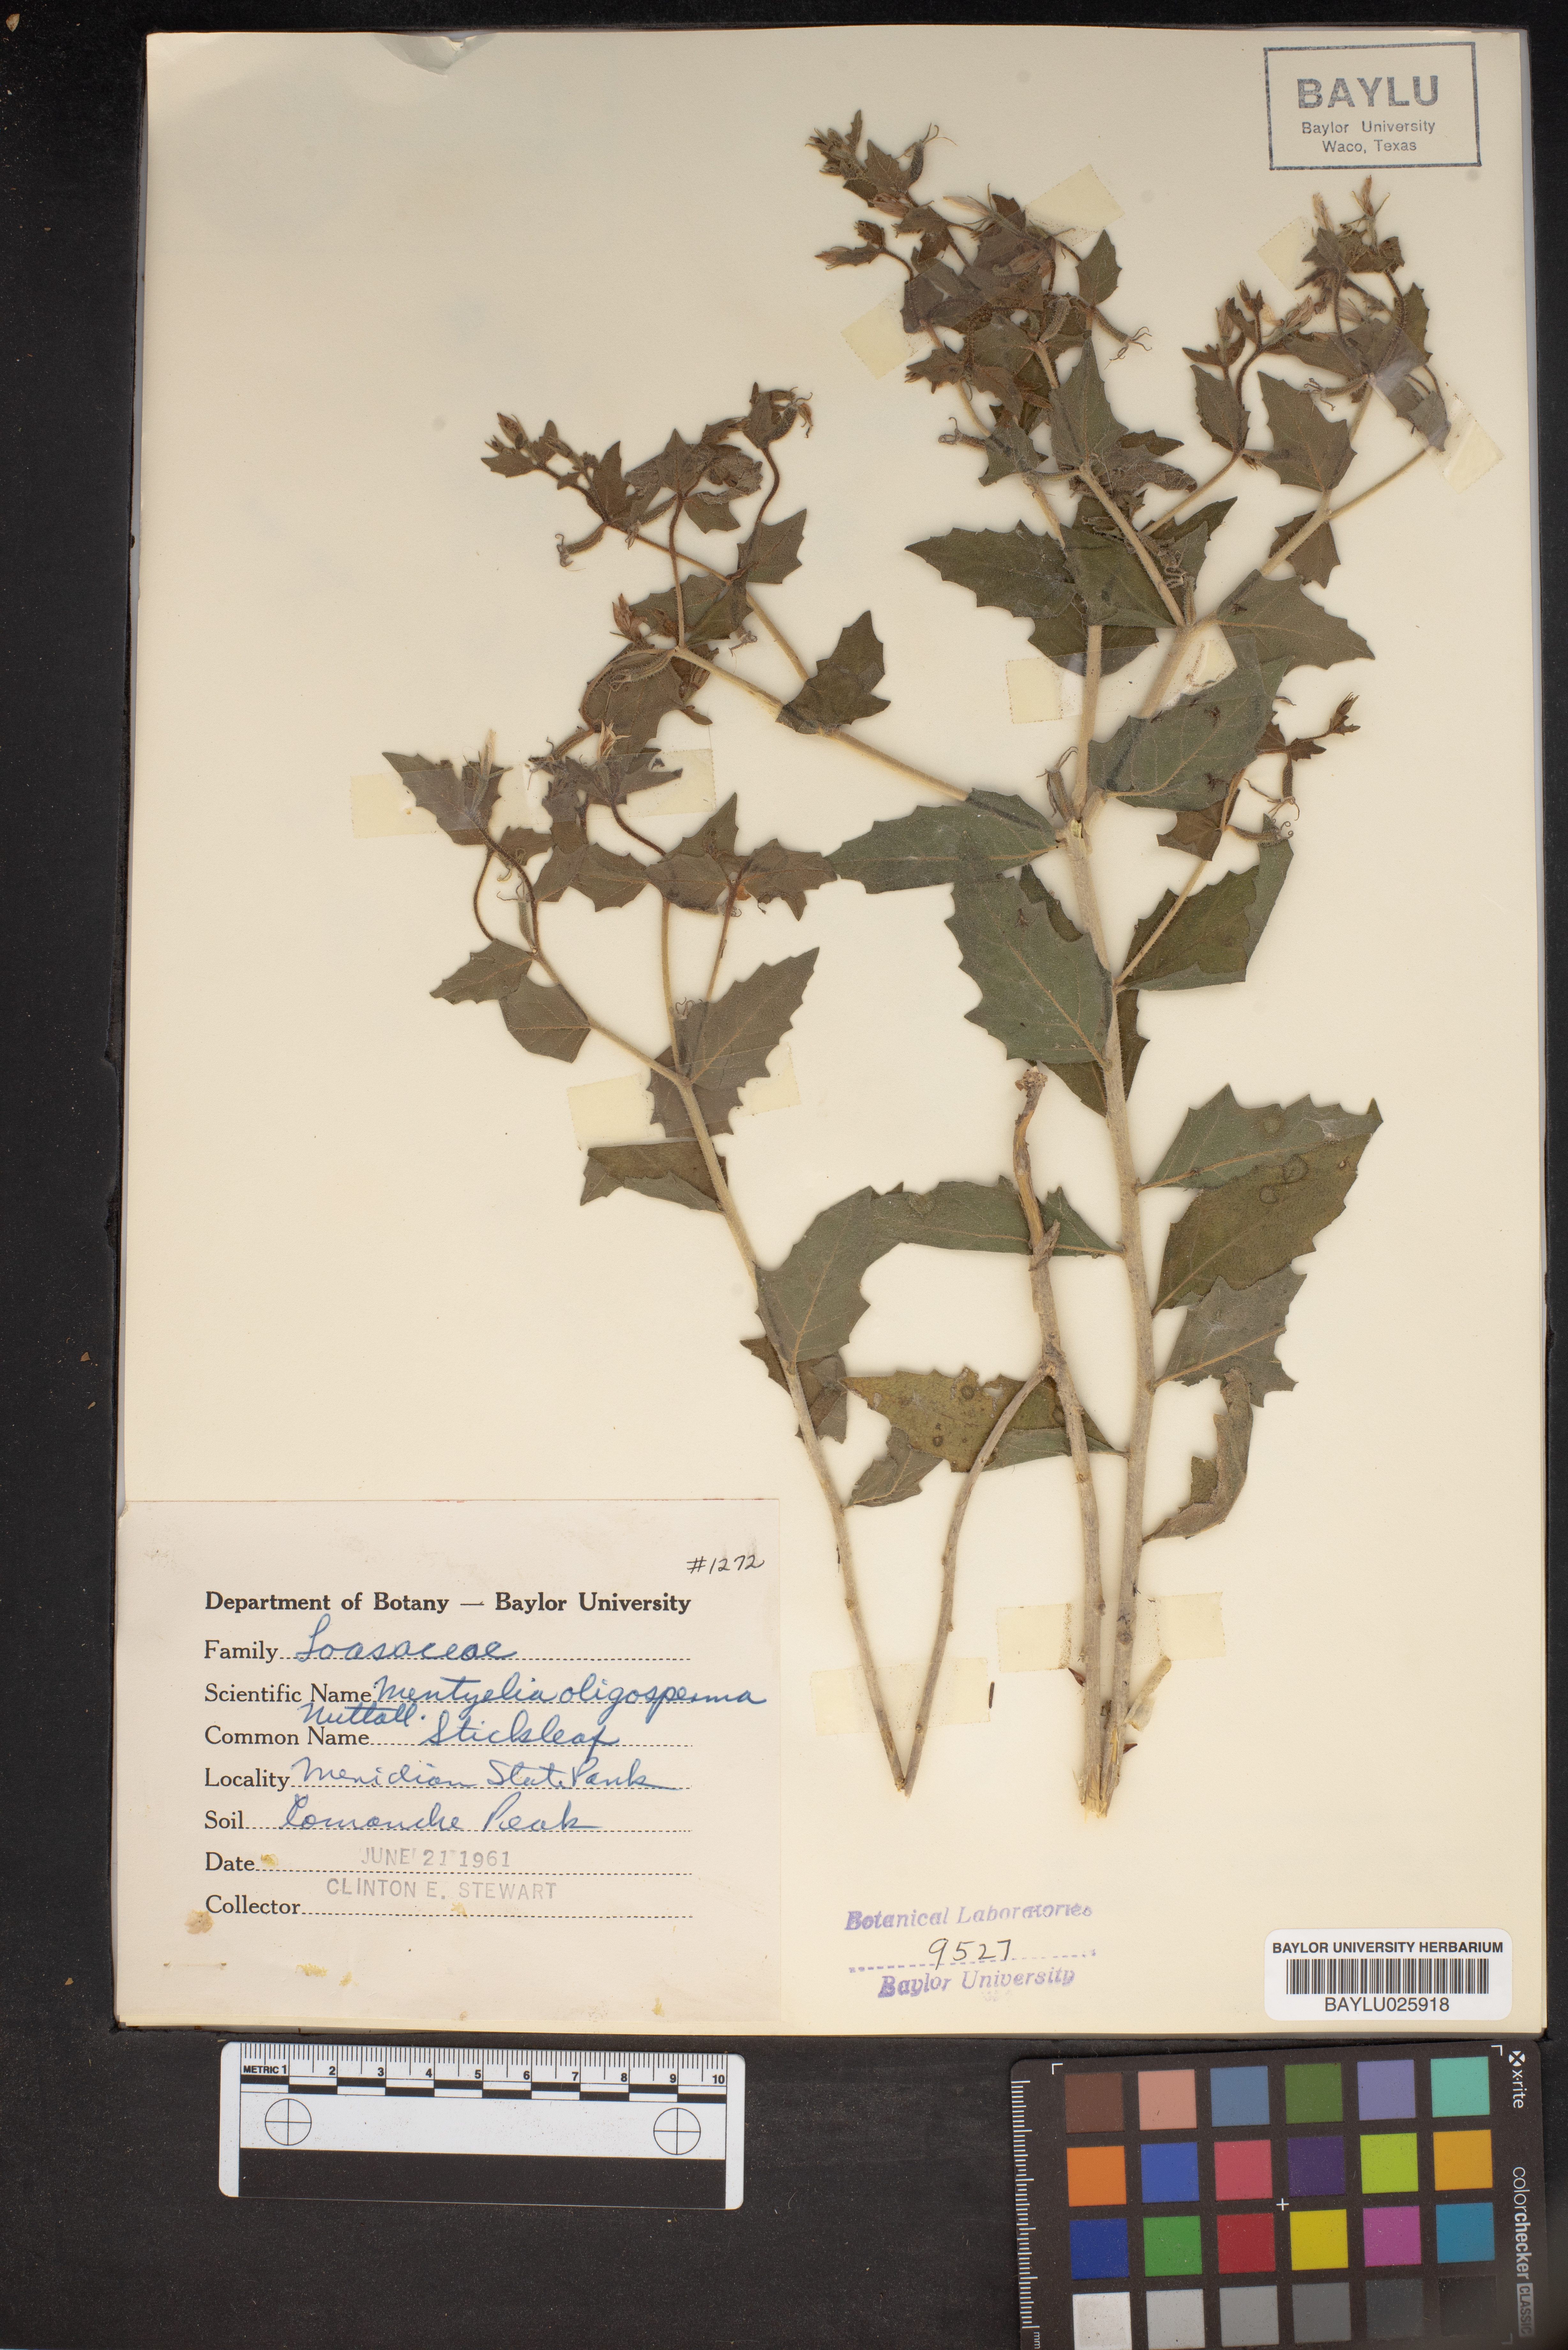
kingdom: Plantae
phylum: Tracheophyta
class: Magnoliopsida
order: Cornales
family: Loasaceae
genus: Mentzelia
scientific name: Mentzelia oligosperma
